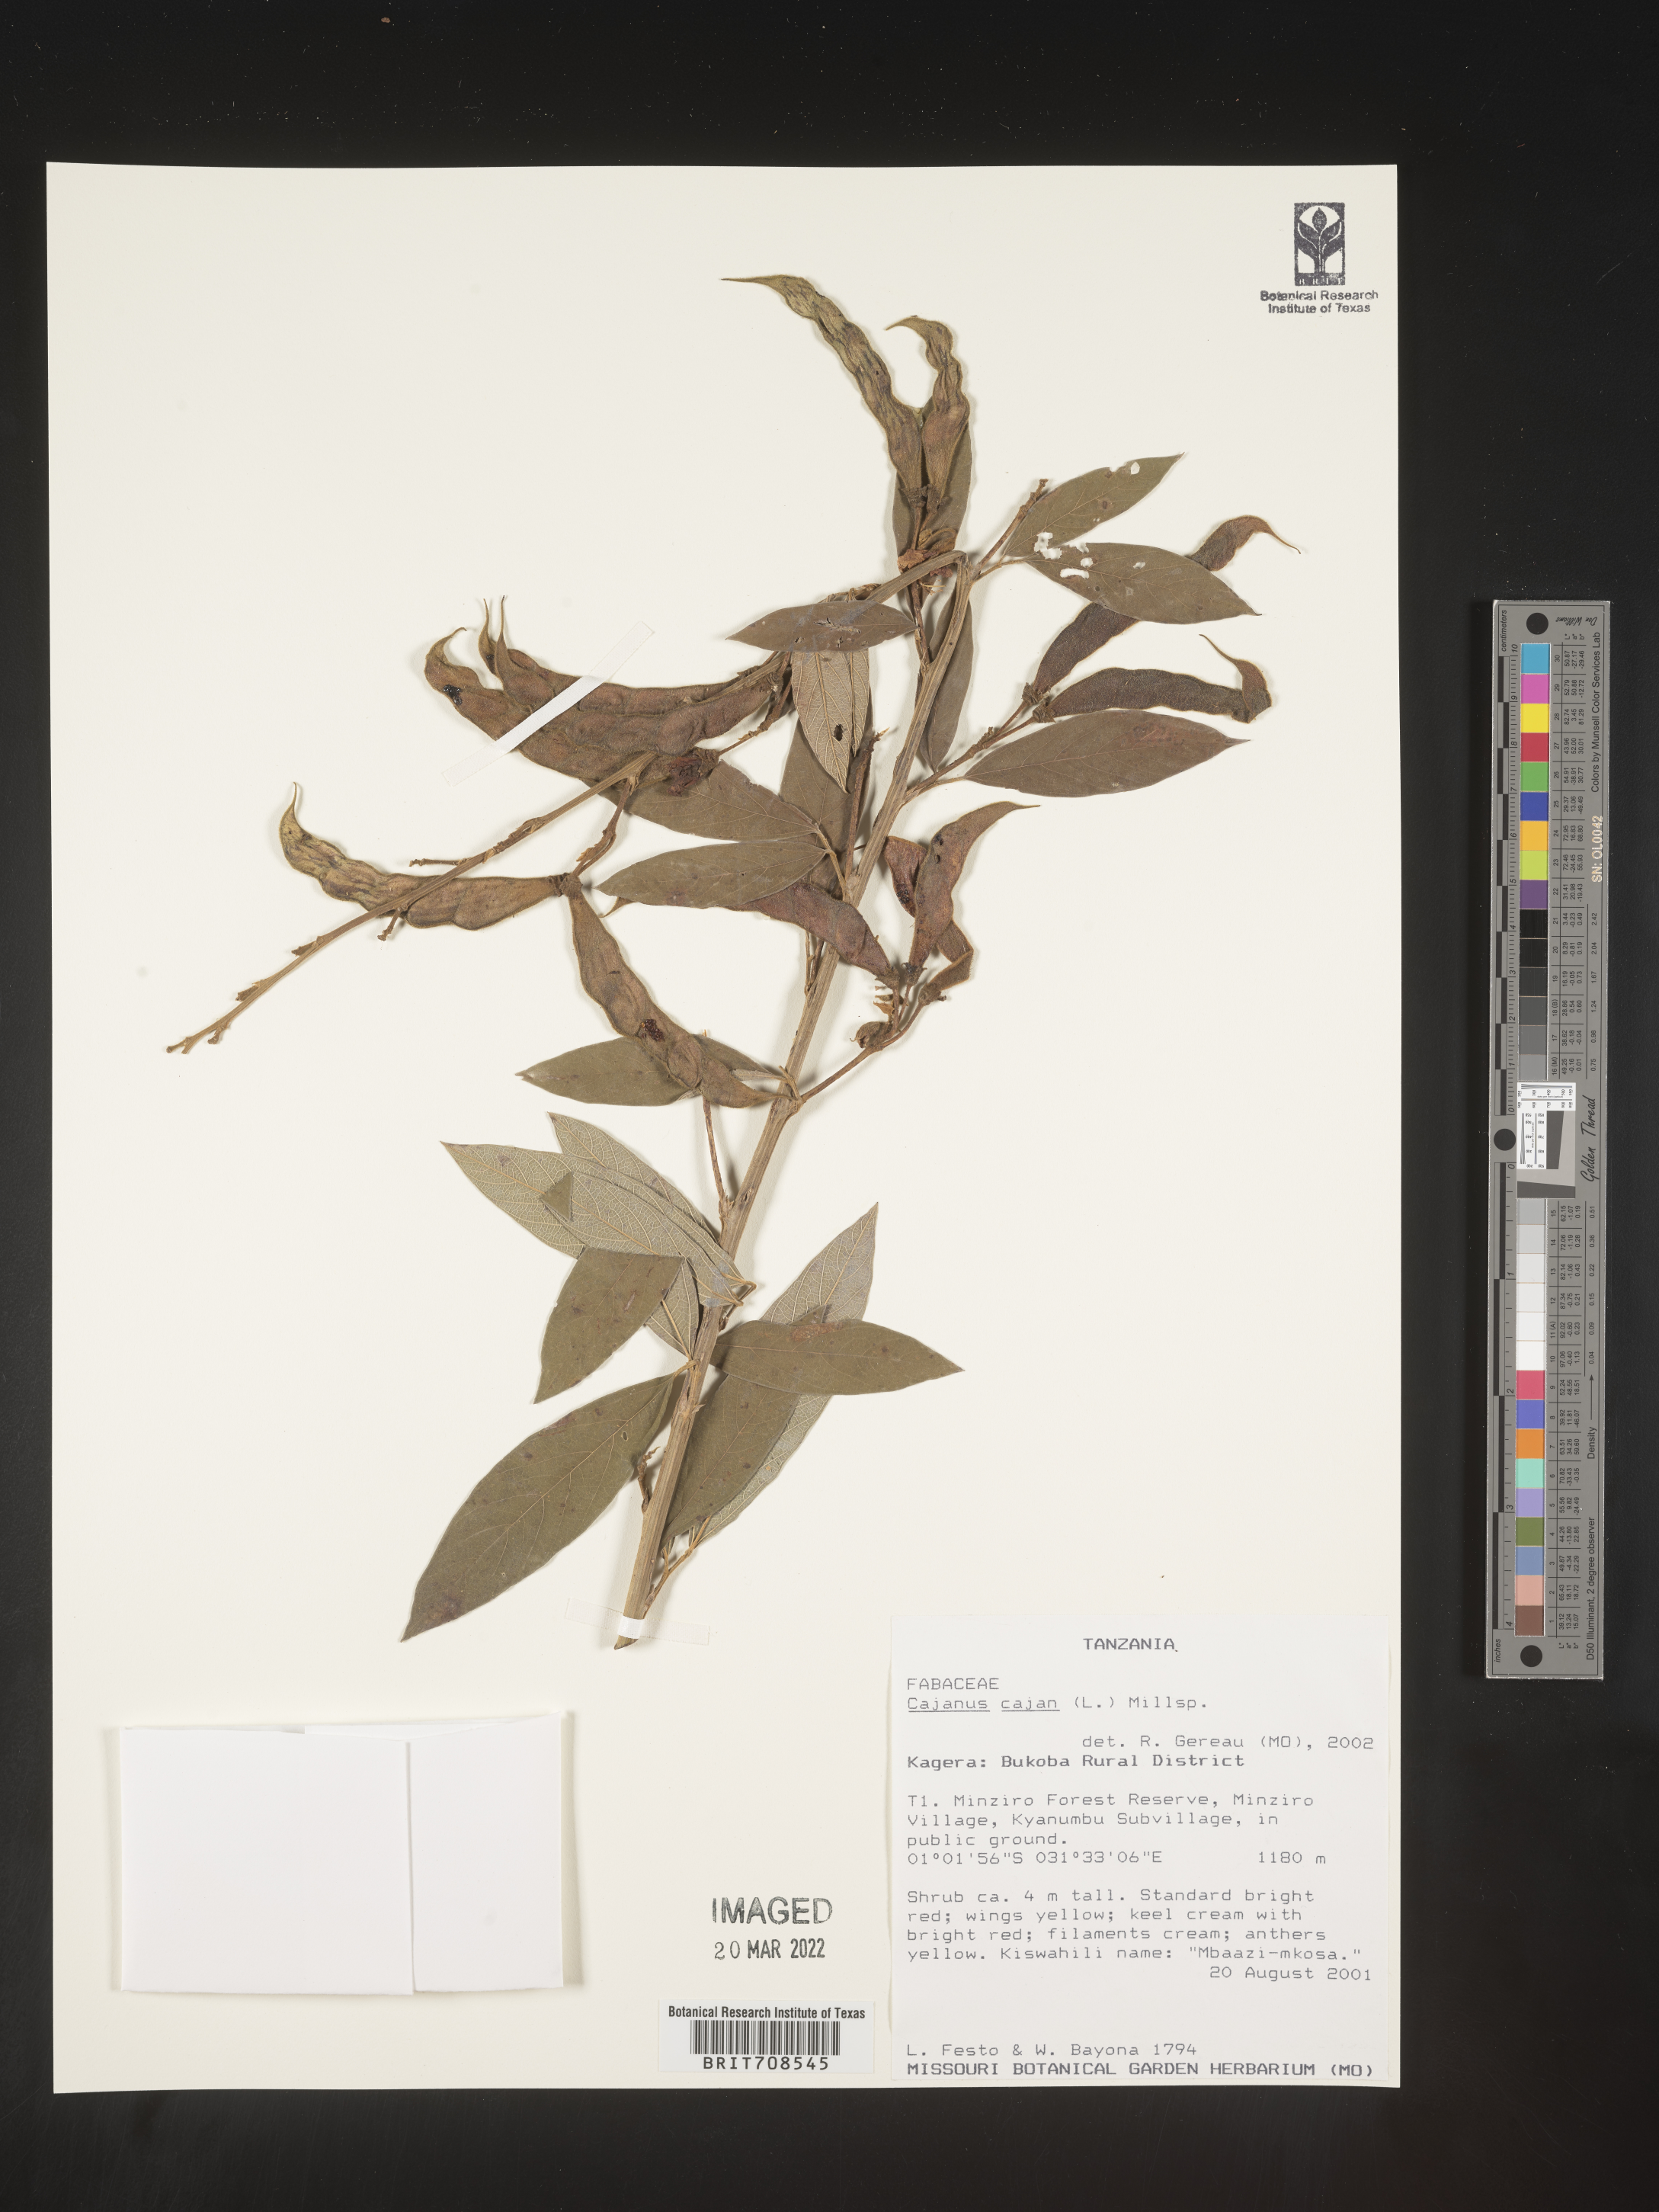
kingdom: Plantae
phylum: Tracheophyta
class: Magnoliopsida
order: Fabales
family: Fabaceae
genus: Cajanus
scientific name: Cajanus
